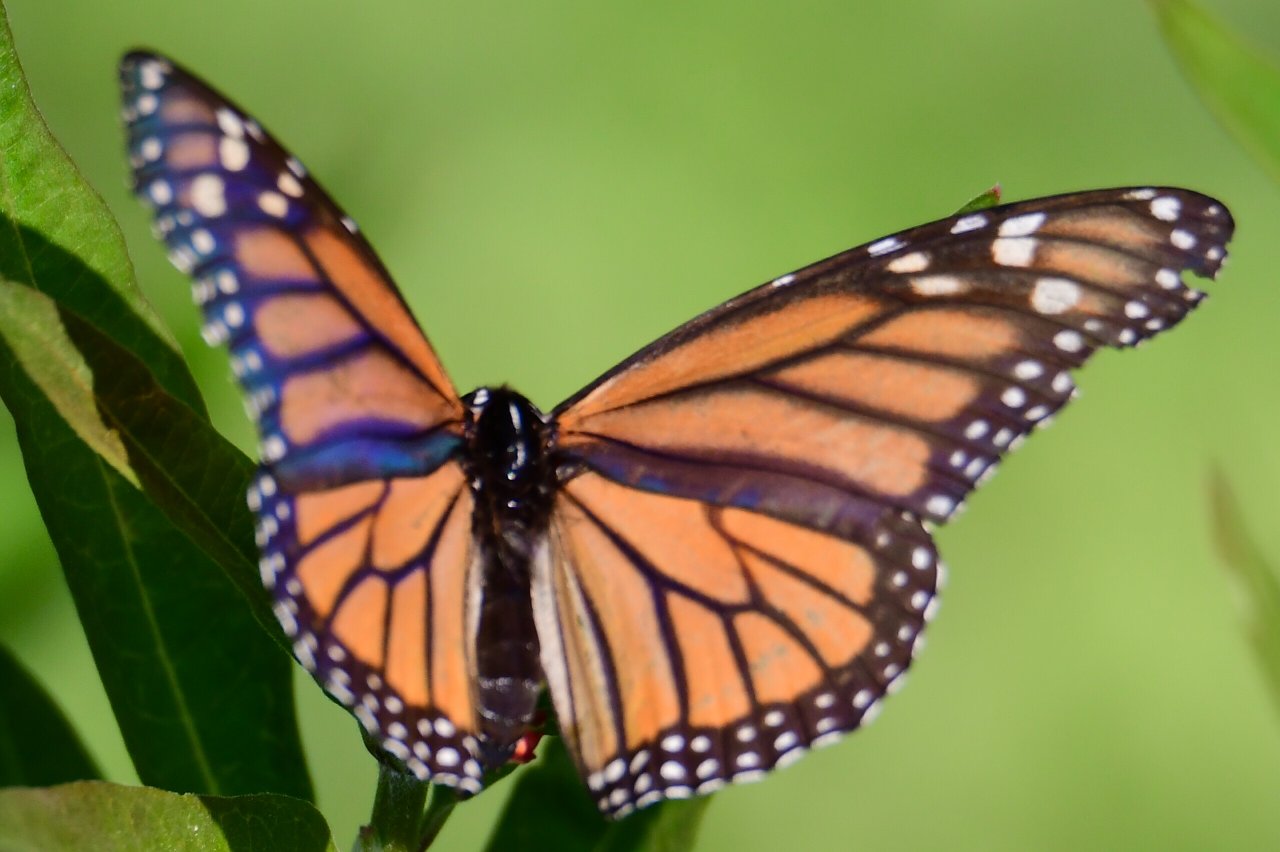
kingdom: Animalia
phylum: Arthropoda
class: Insecta
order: Lepidoptera
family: Nymphalidae
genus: Danaus
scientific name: Danaus plexippus
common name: Monarch
